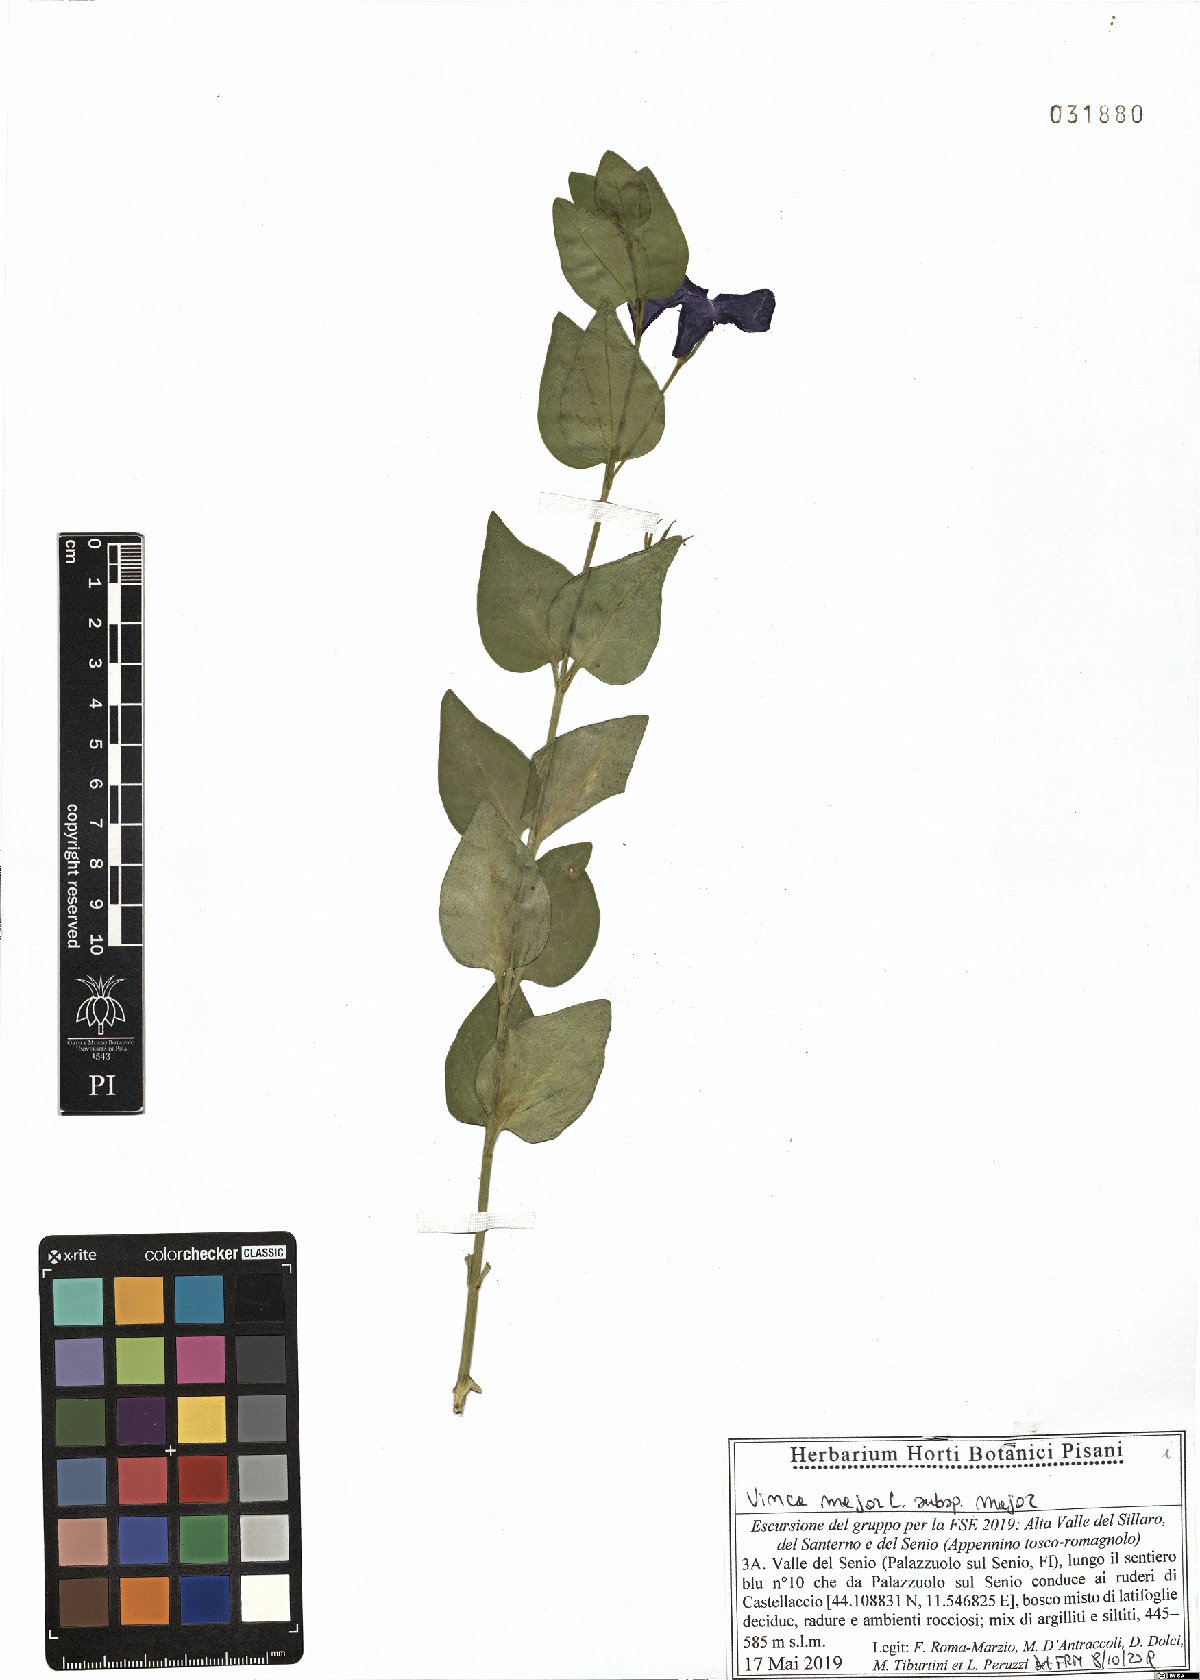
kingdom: Plantae
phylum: Tracheophyta
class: Magnoliopsida
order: Gentianales
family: Apocynaceae
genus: Vinca
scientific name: Vinca major
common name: Greater periwinkle
